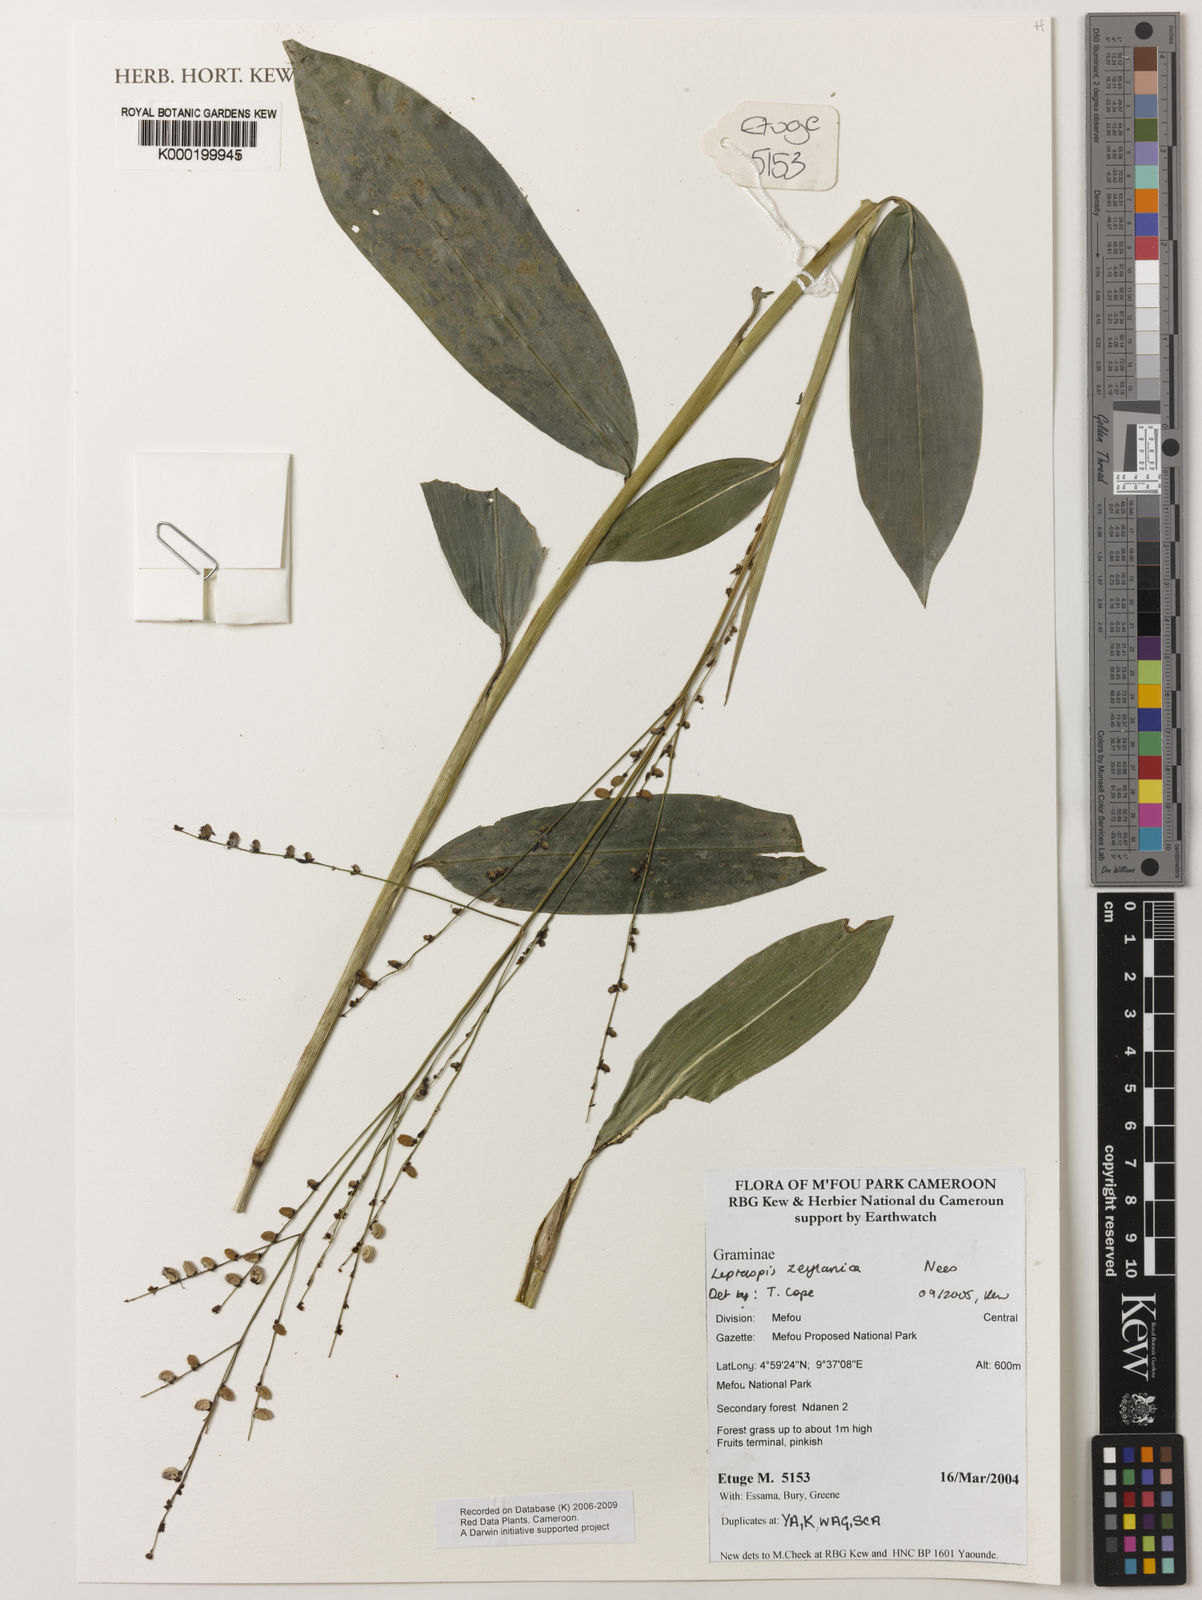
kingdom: Plantae
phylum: Tracheophyta
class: Liliopsida
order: Poales
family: Poaceae
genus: Leptaspis
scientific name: Leptaspis zeylanica
